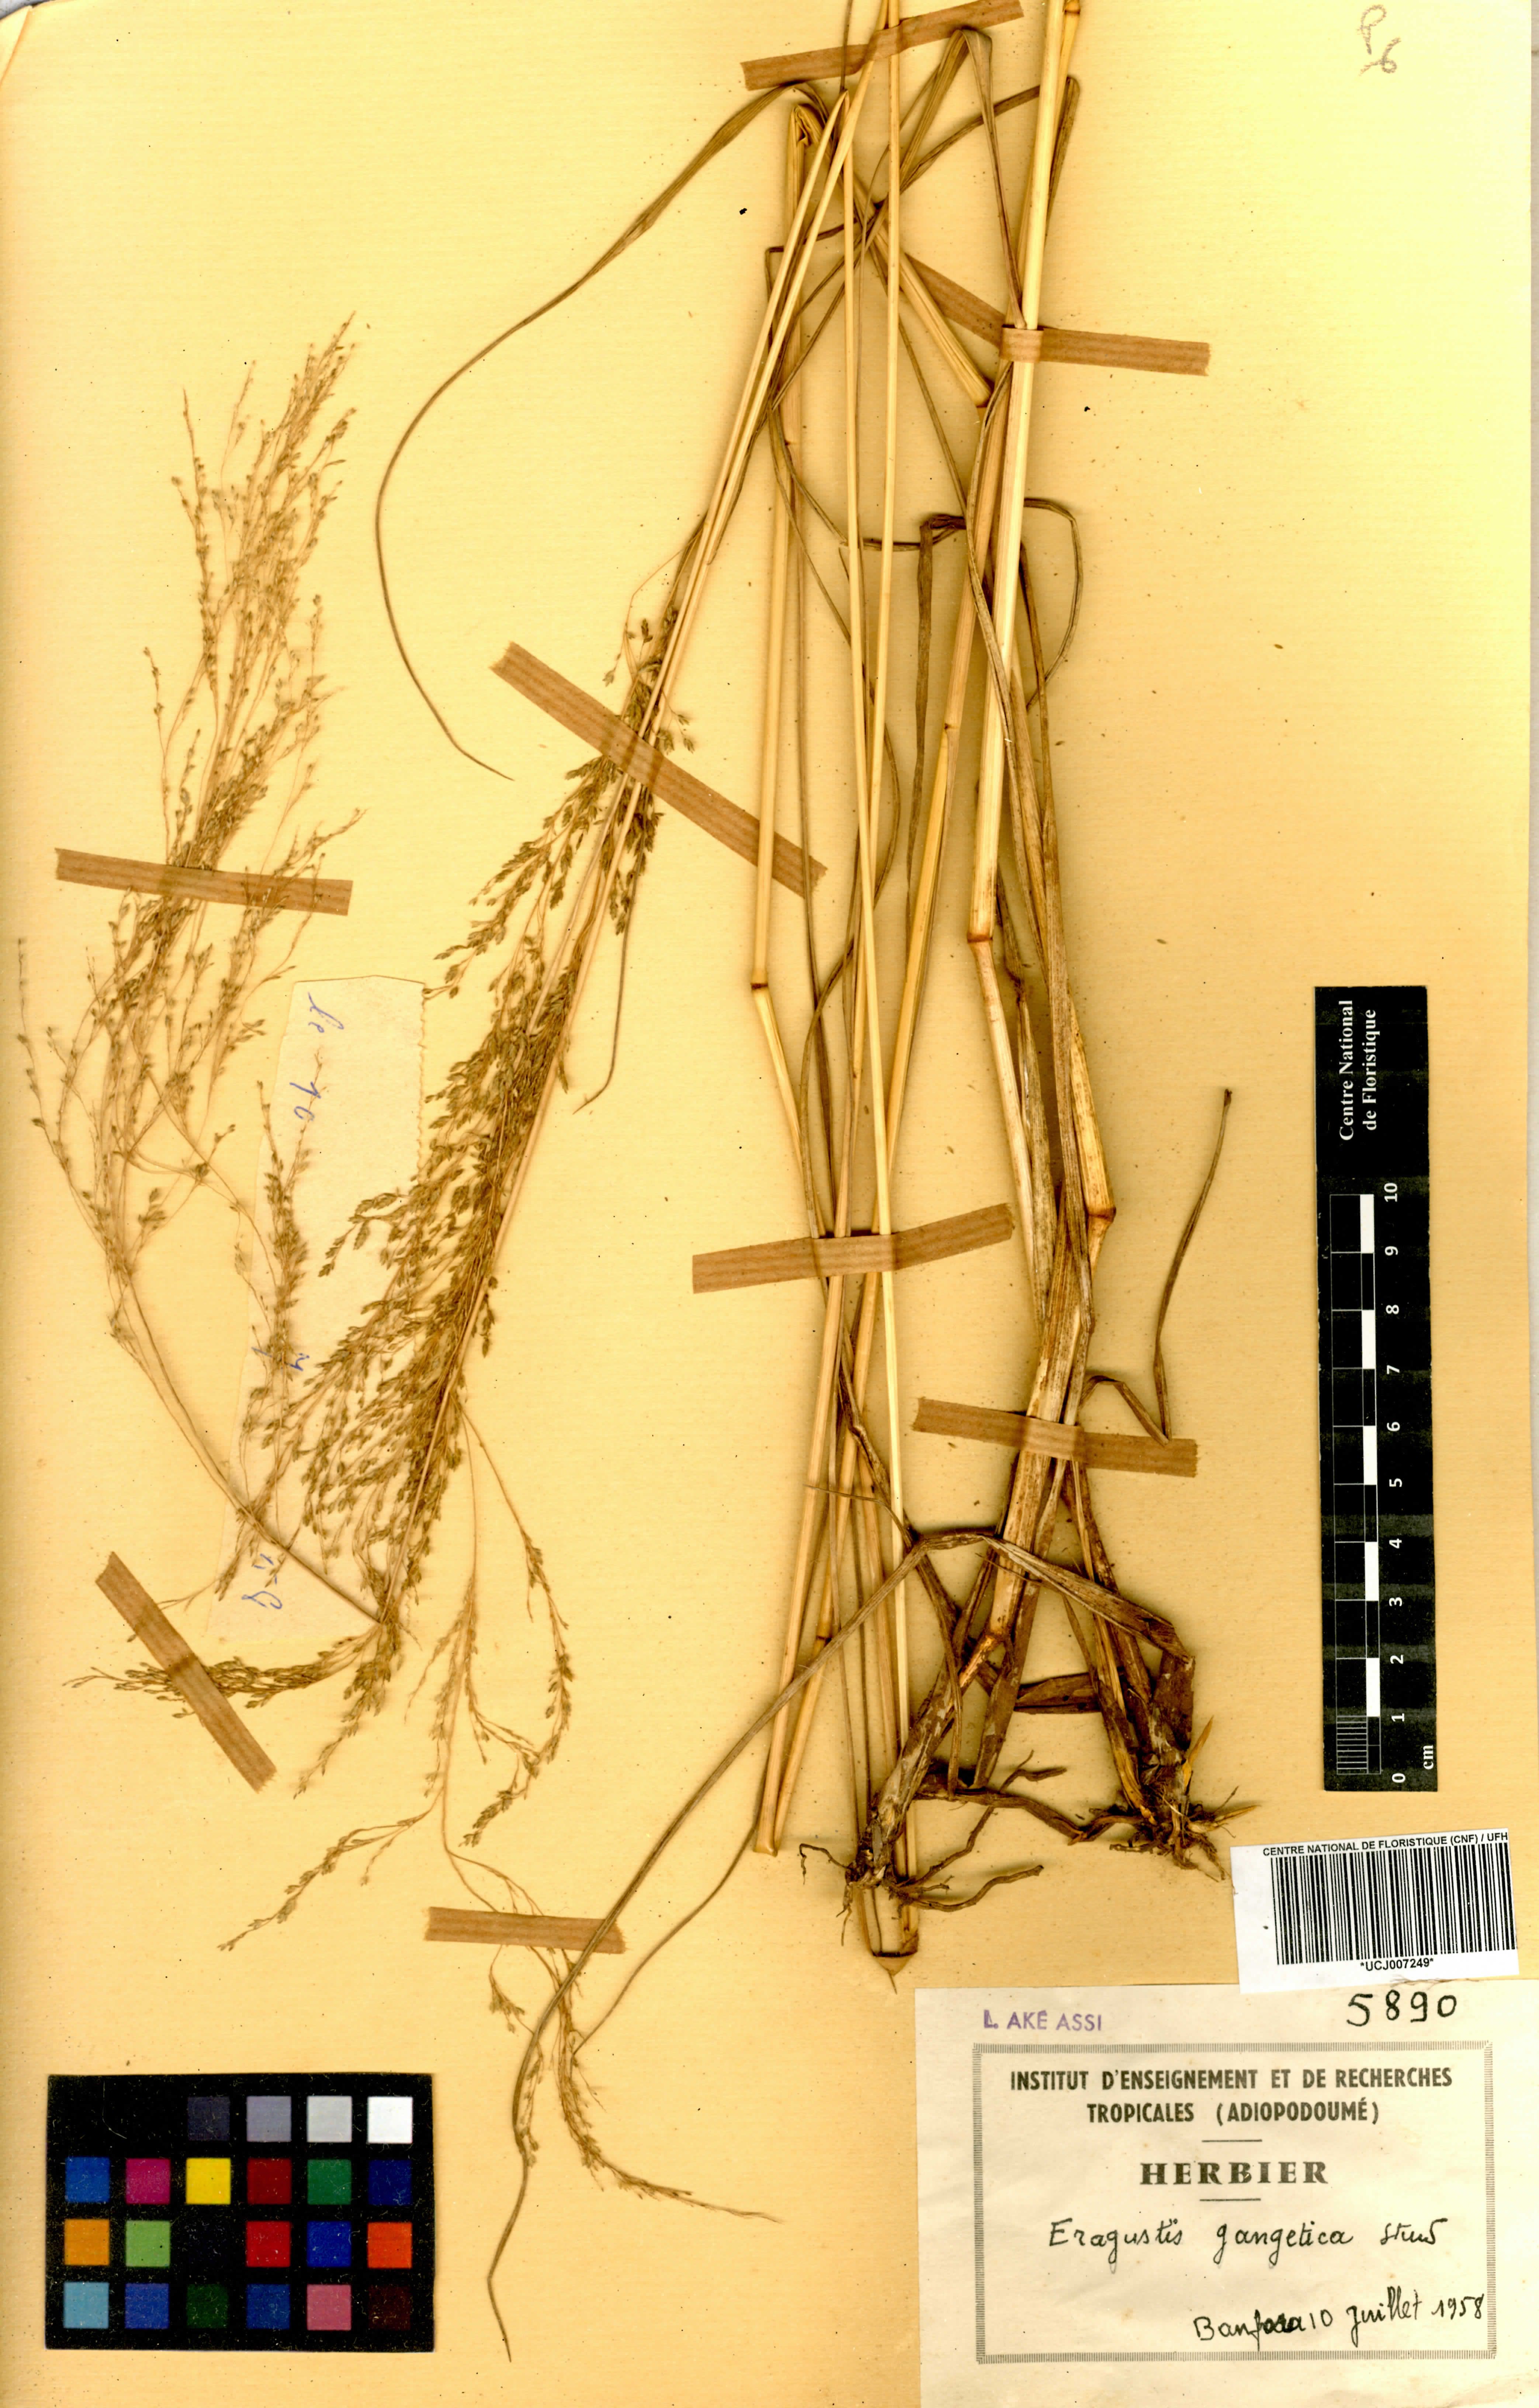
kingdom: Plantae
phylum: Tracheophyta
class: Liliopsida
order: Poales
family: Poaceae
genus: Eragrostis
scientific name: Eragrostis gangetica
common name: Slimflower lovegrass
